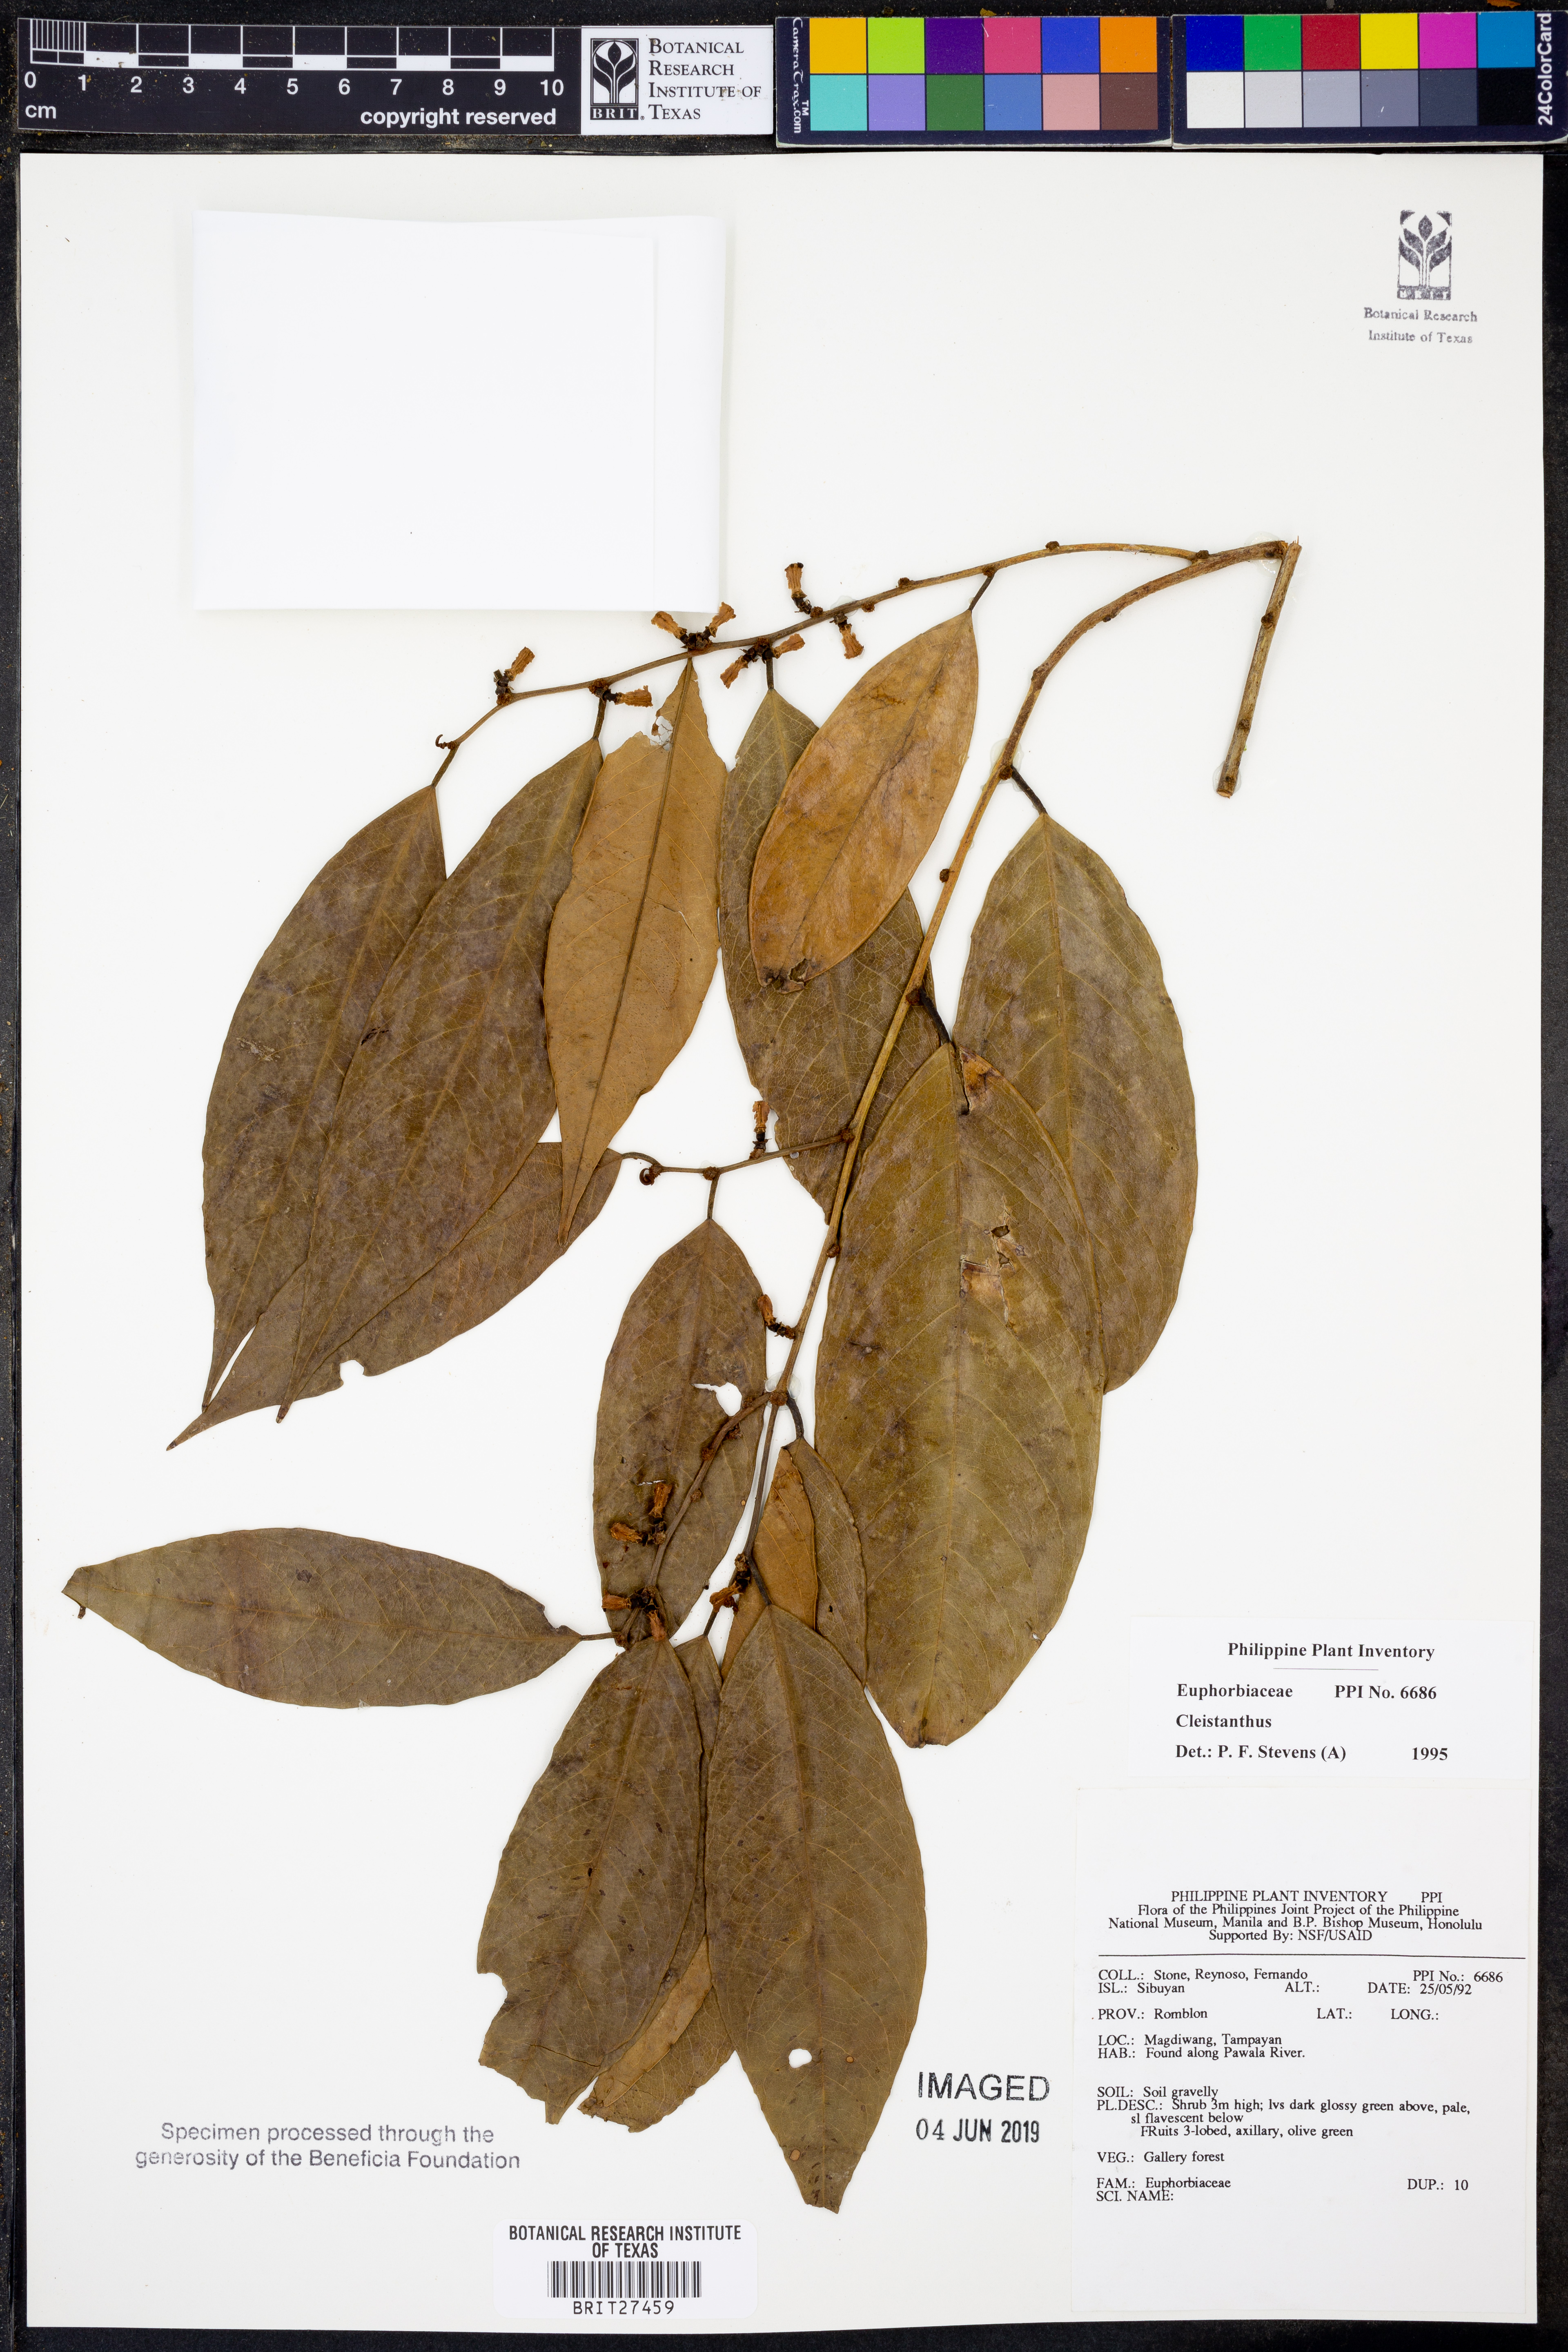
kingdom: Plantae
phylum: Tracheophyta
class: Magnoliopsida
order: Malpighiales
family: Phyllanthaceae
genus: Cleistanthus
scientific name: Cleistanthus
